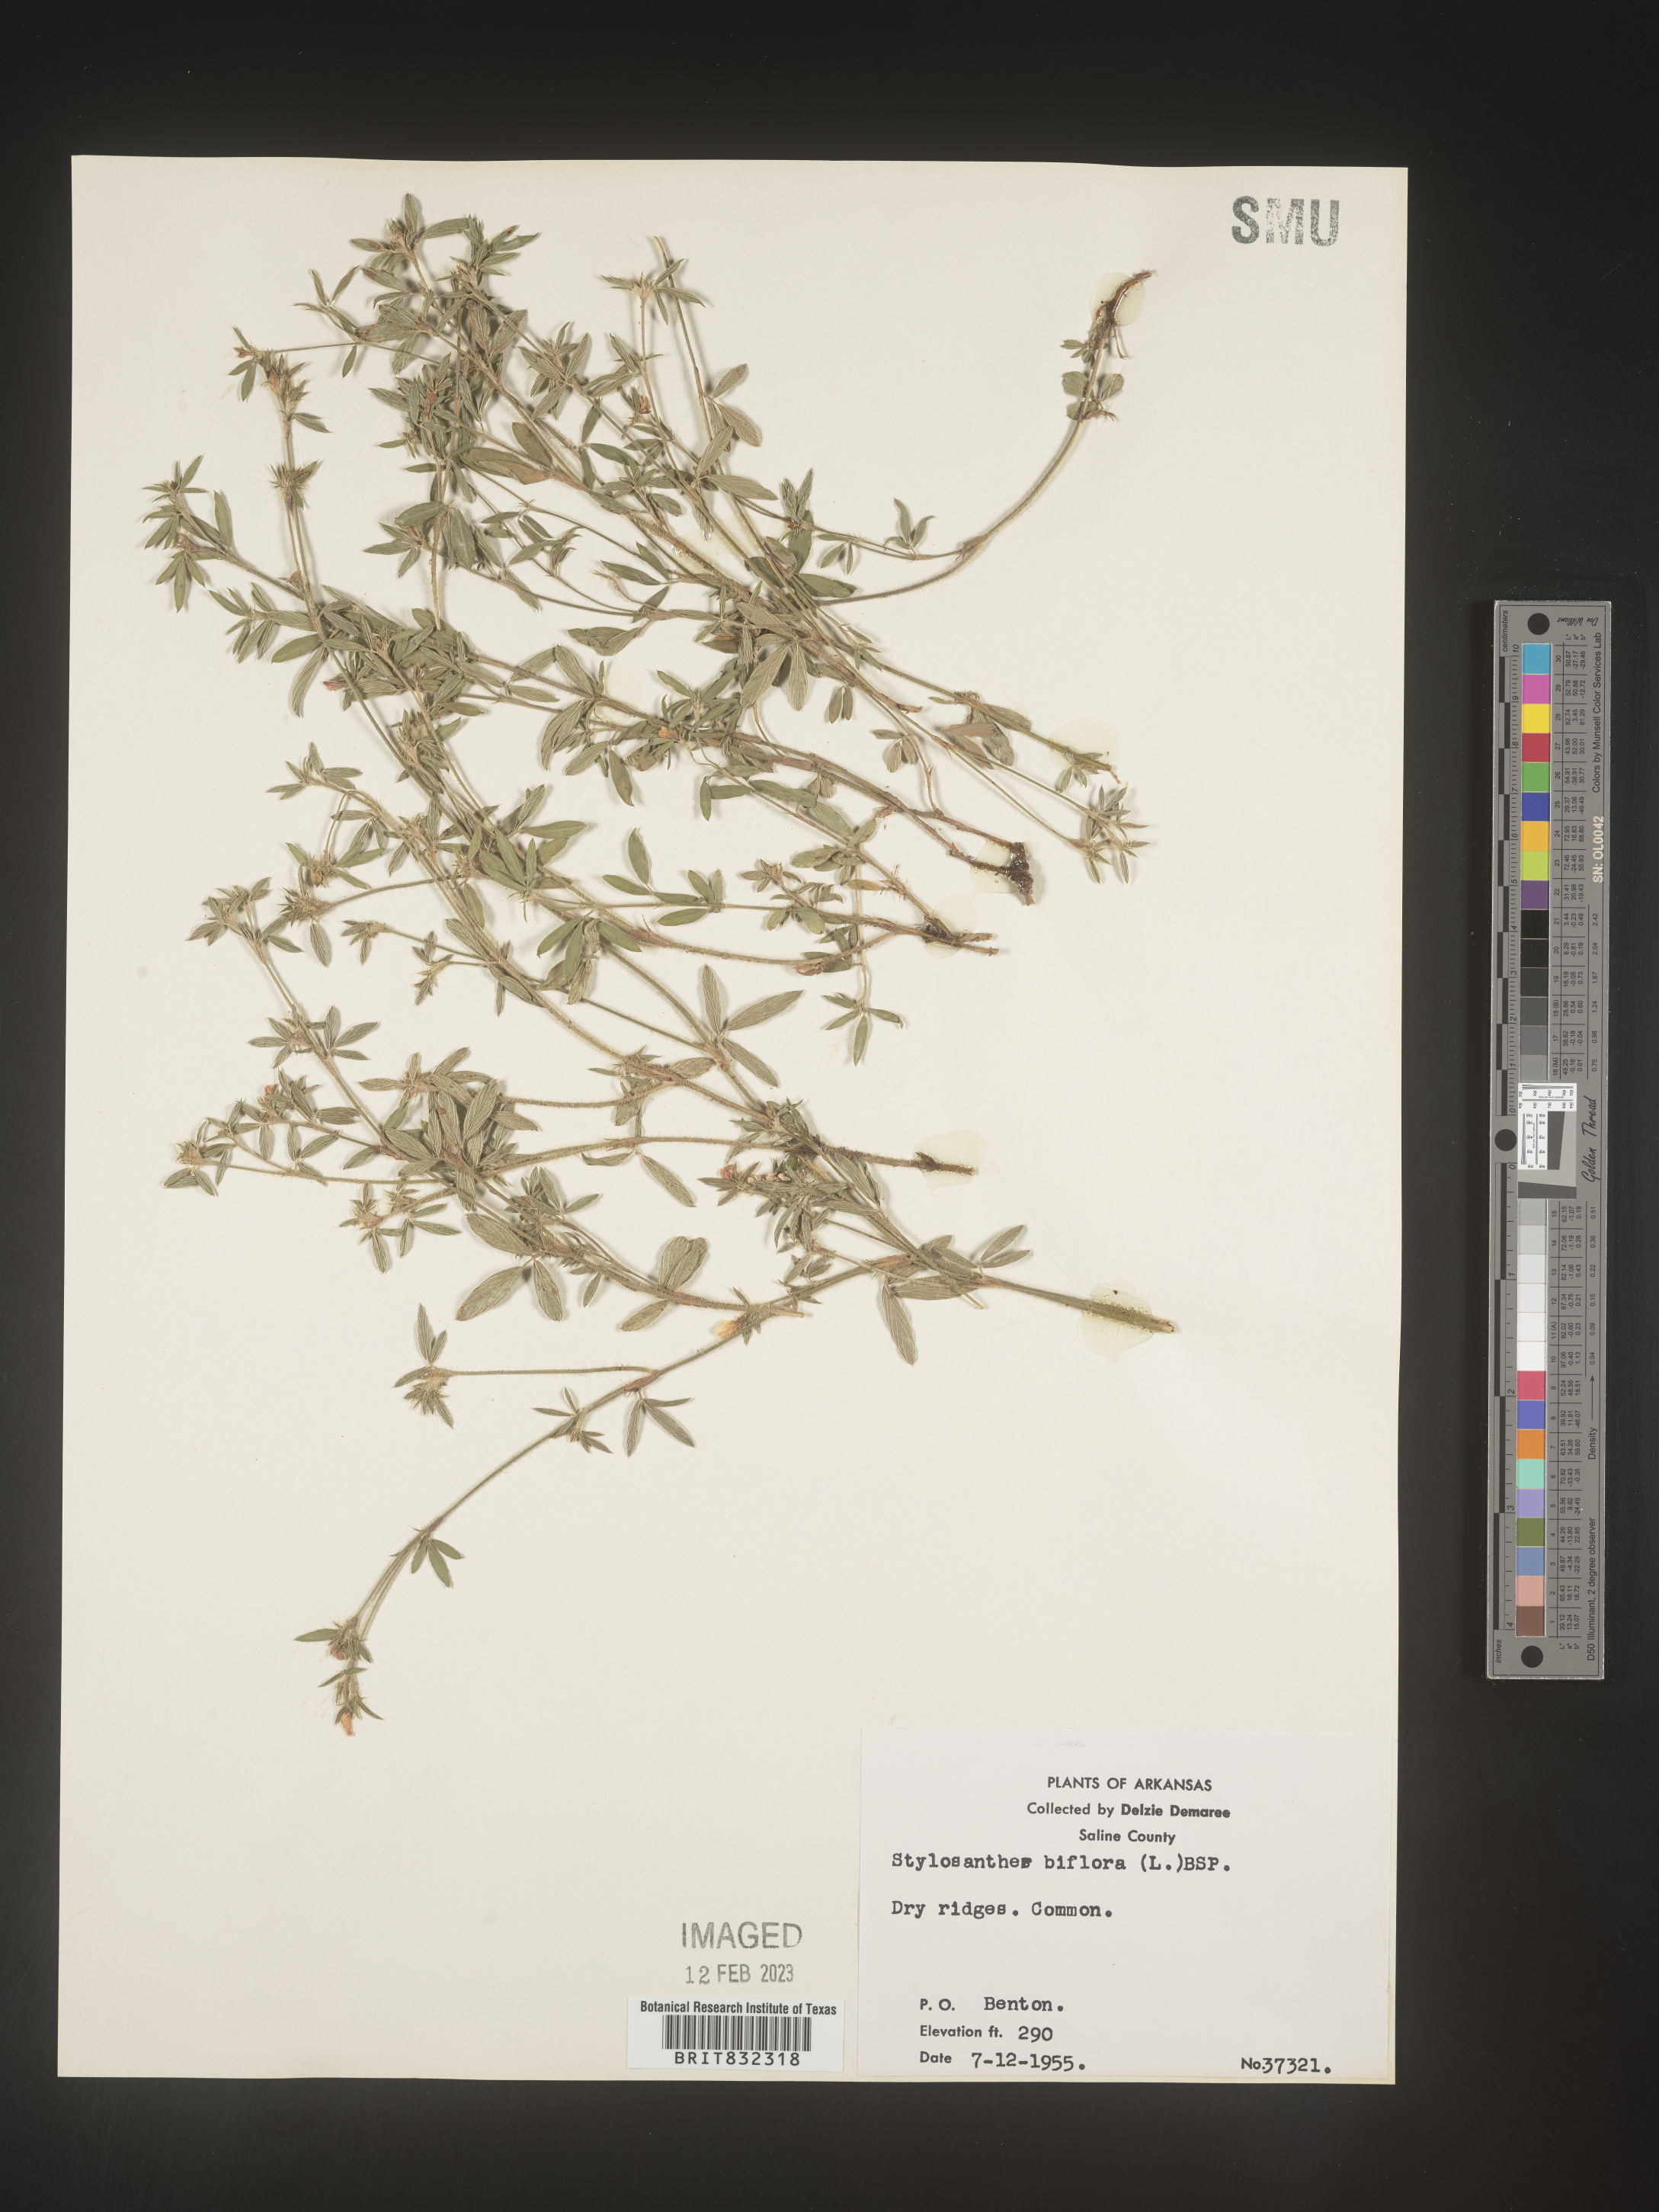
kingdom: Plantae
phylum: Tracheophyta
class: Magnoliopsida
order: Fabales
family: Fabaceae
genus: Stylosanthes
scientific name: Stylosanthes biflora
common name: Two-flower pencil-flower
